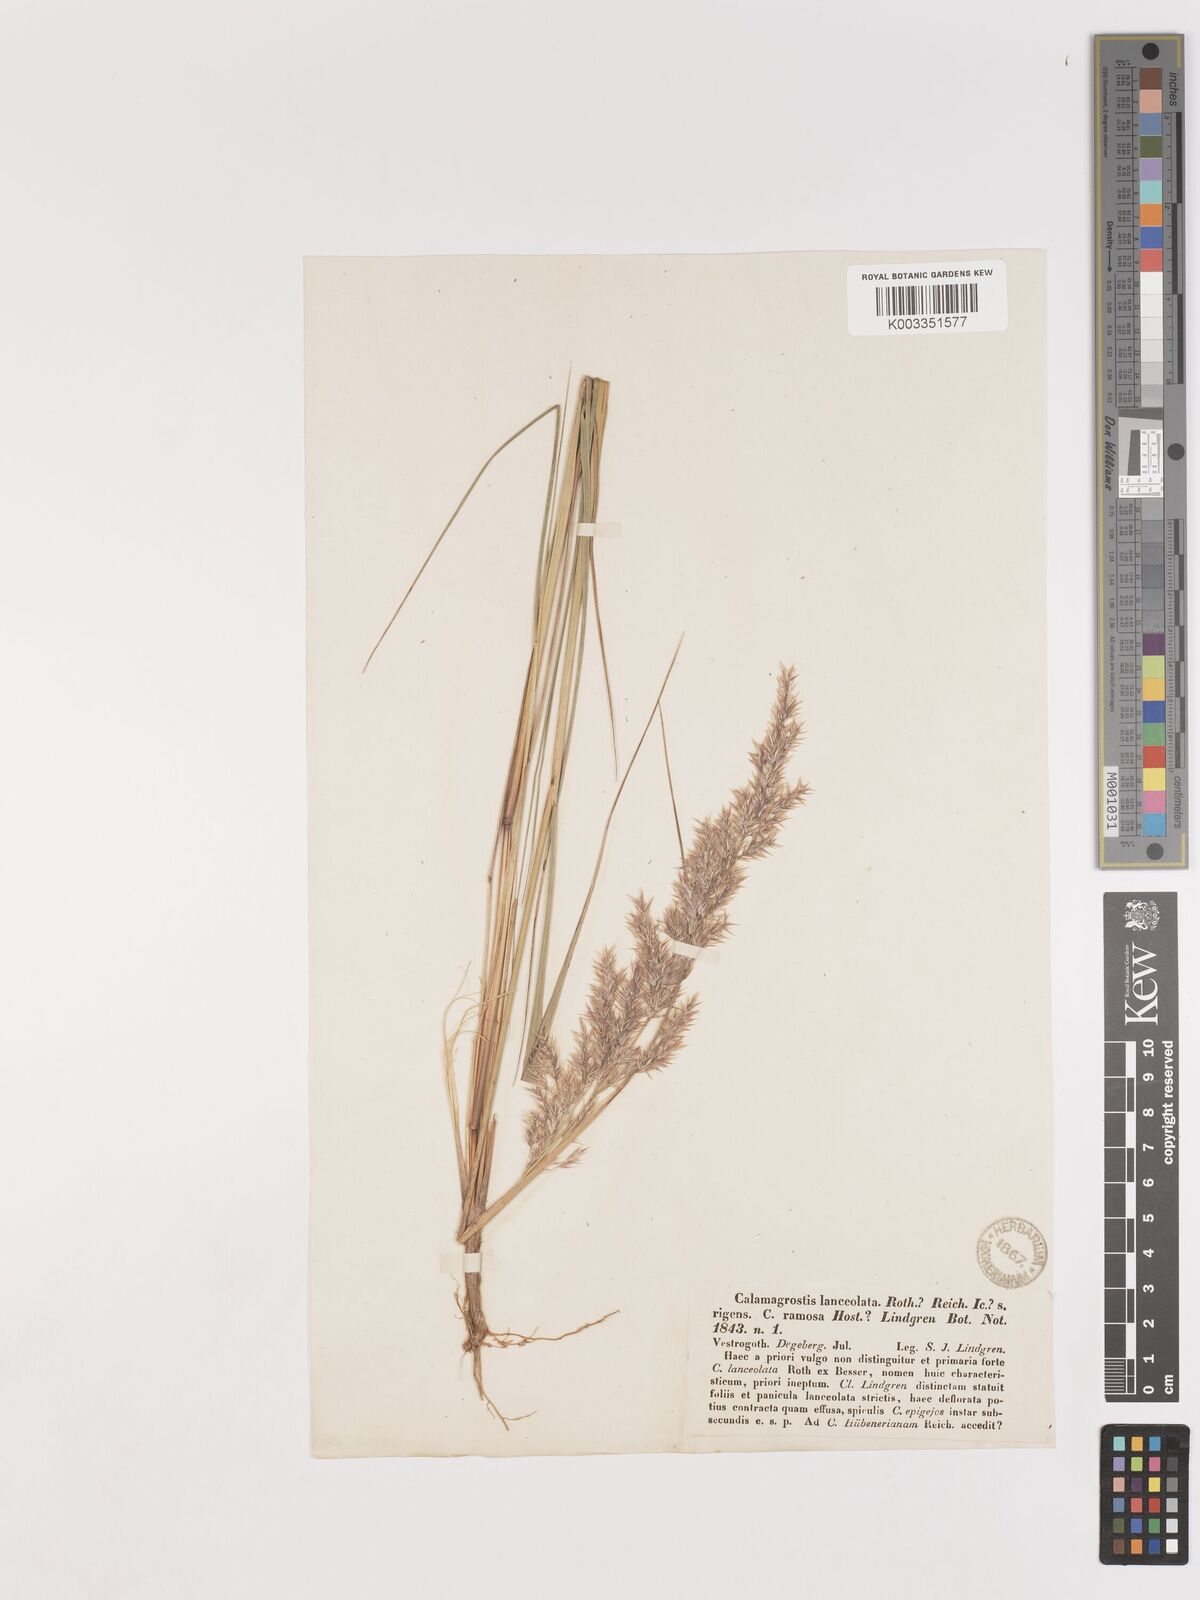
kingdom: Plantae
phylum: Tracheophyta
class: Liliopsida
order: Poales
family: Poaceae
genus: Calamagrostis
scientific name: Calamagrostis canescens
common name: Purple small-reed
